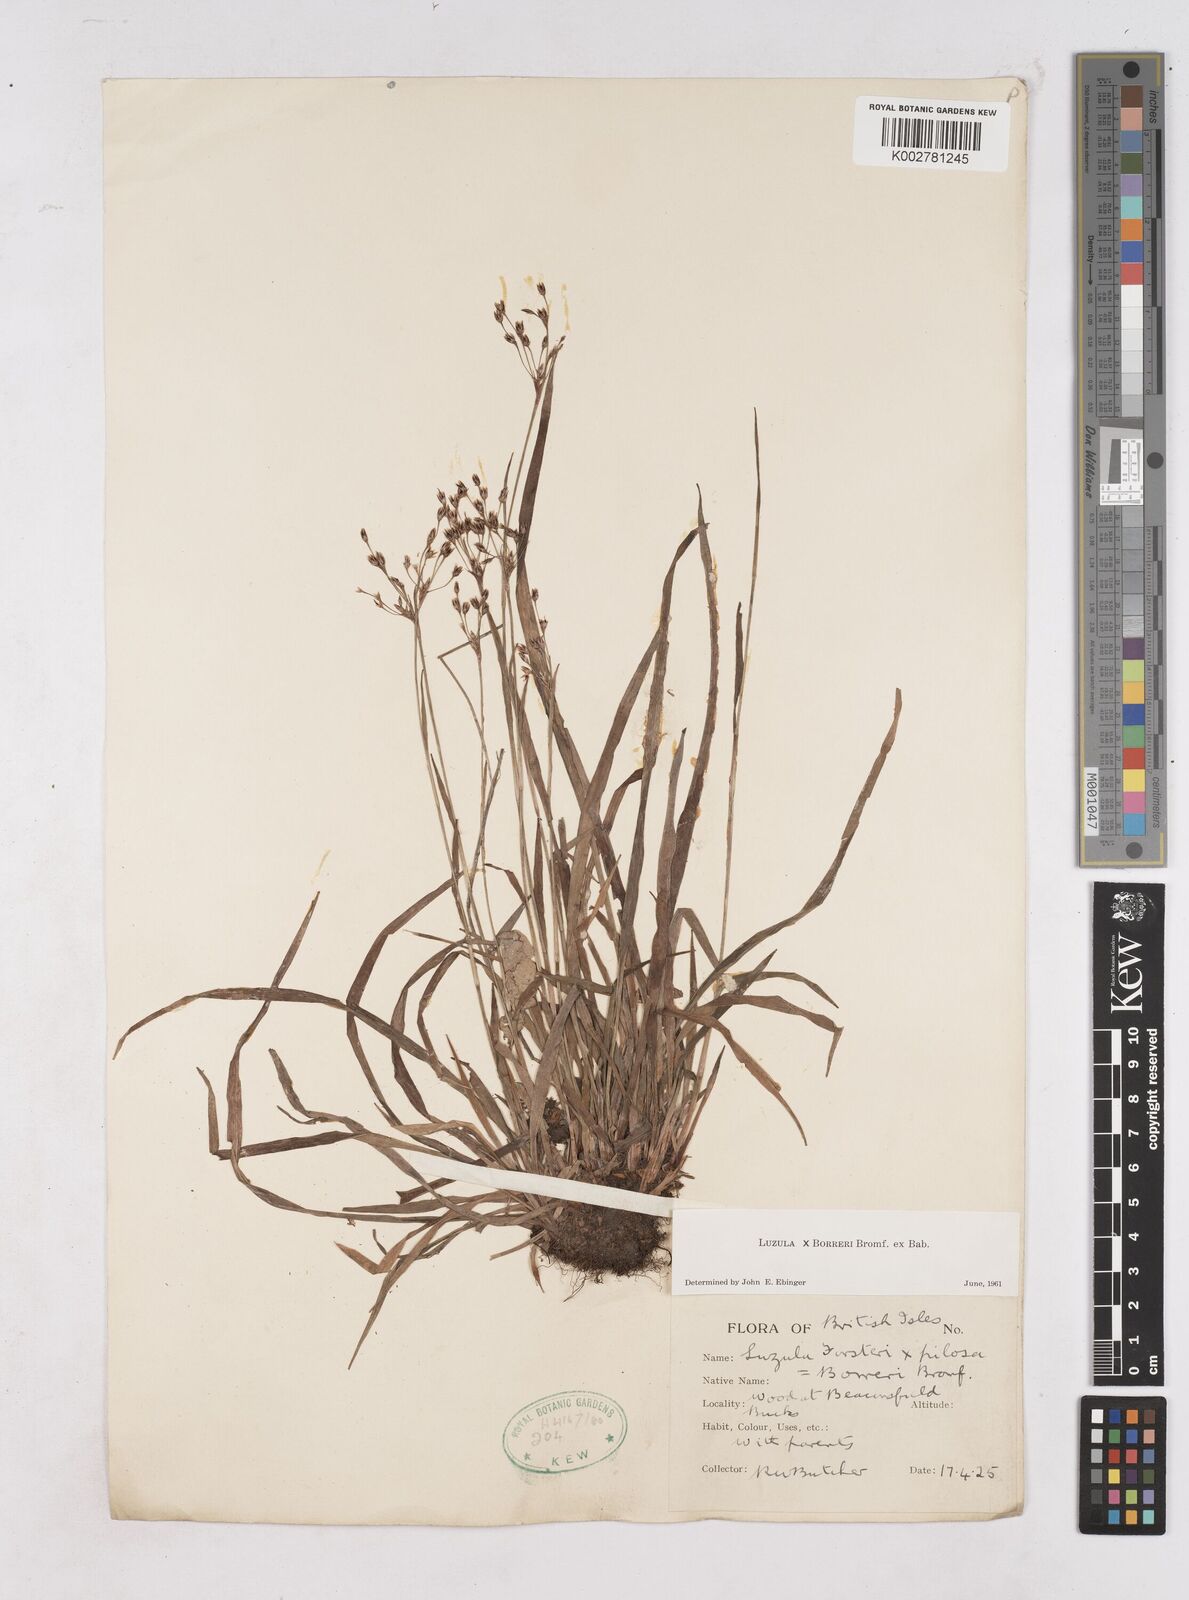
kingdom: Plantae
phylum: Tracheophyta
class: Liliopsida
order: Poales
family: Juncaceae
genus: Luzula
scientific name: Luzula forsteri
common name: Southern wood-rush
